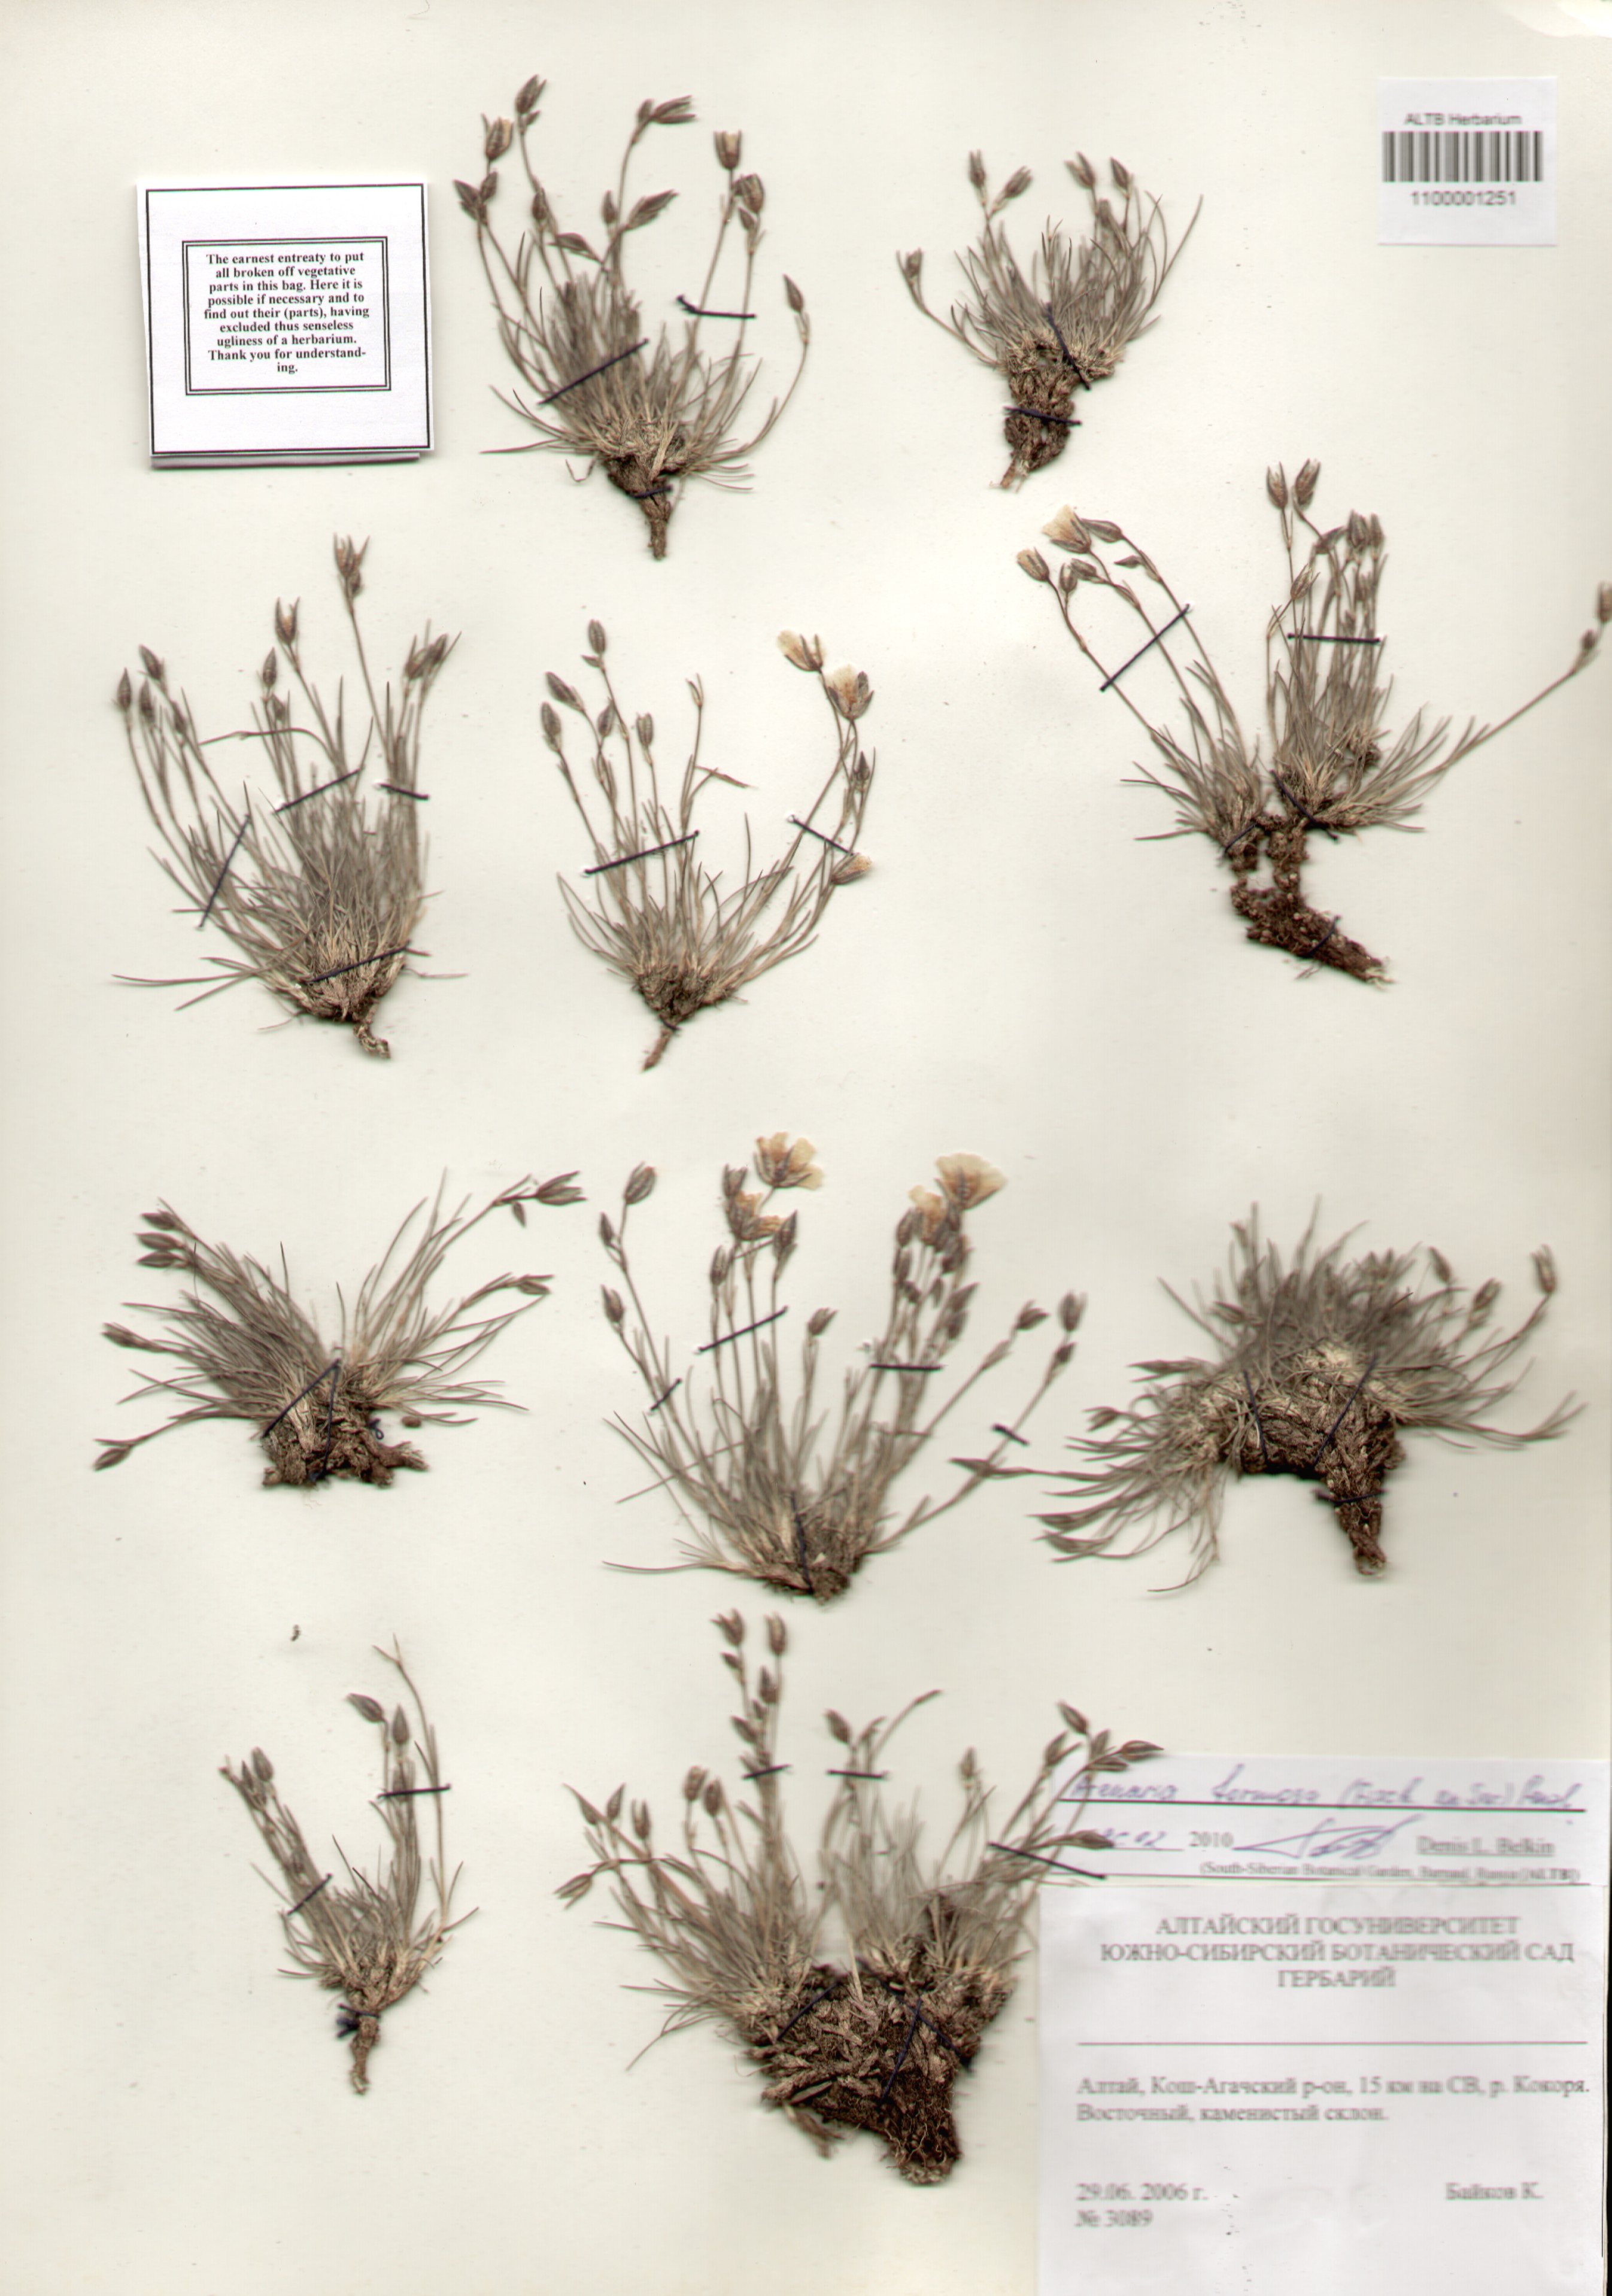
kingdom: Plantae
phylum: Tracheophyta
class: Magnoliopsida
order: Caryophyllales
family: Caryophyllaceae
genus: Eremogone
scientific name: Eremogone formosa
